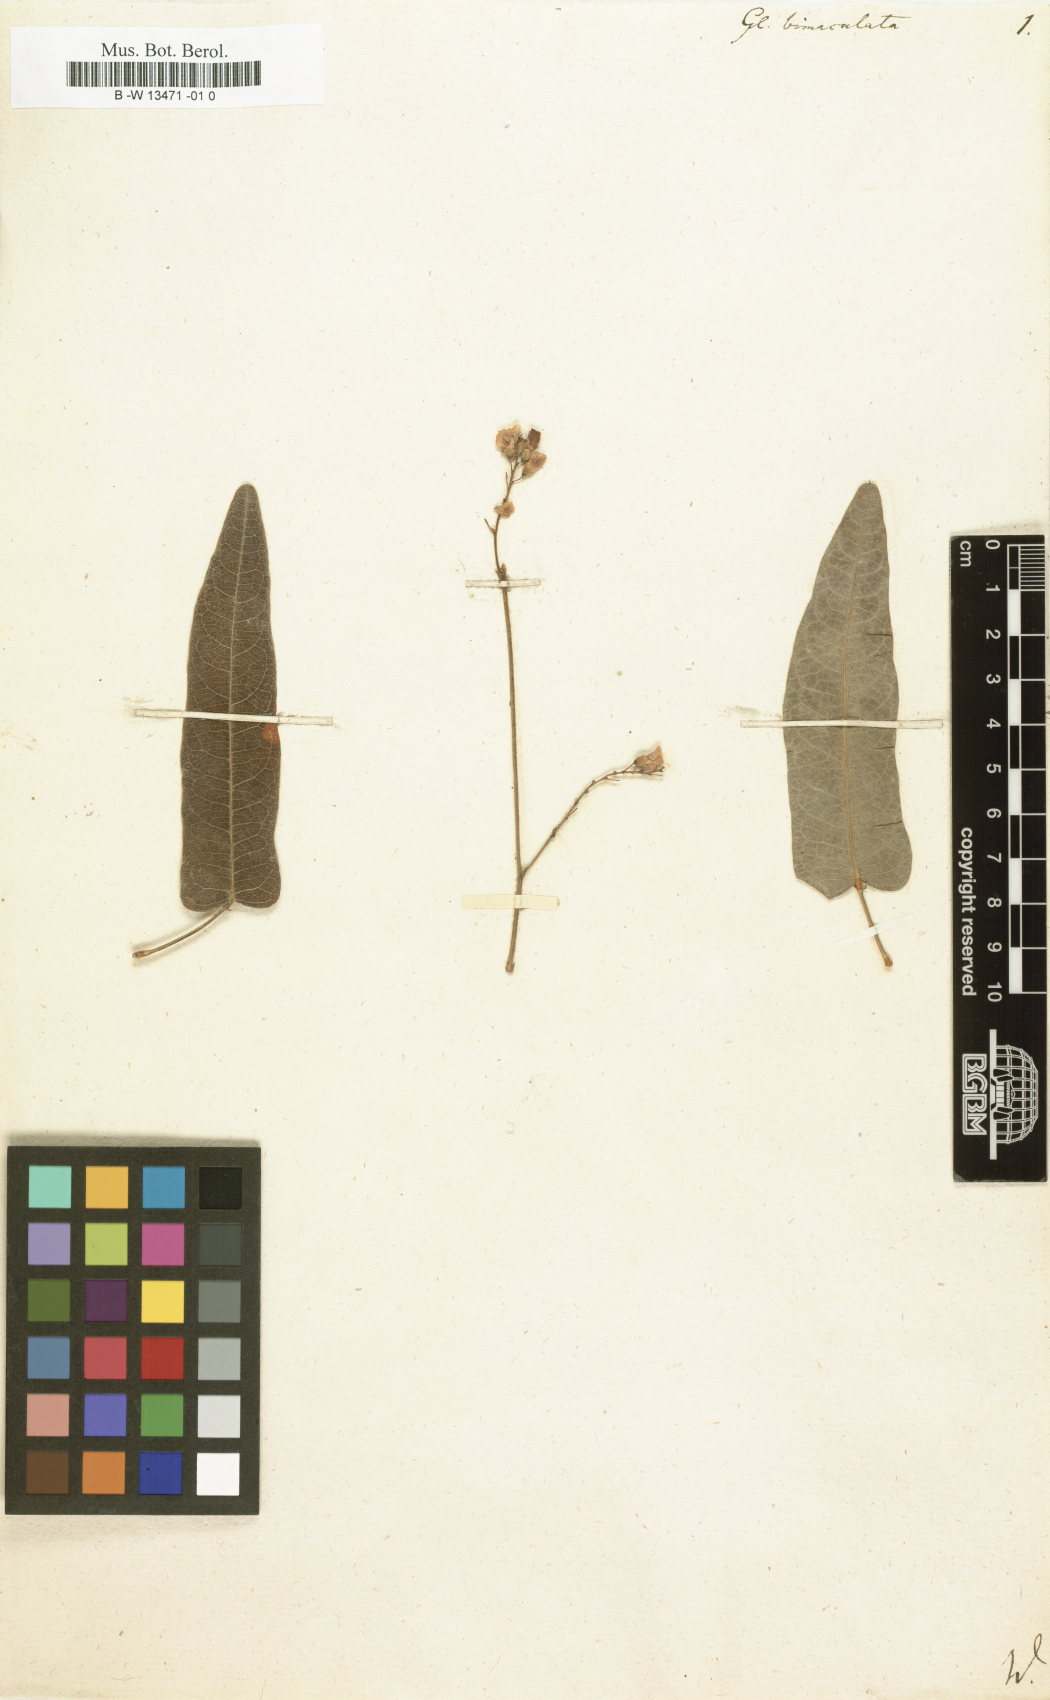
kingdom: Plantae
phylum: Tracheophyta
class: Magnoliopsida
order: Fabales
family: Fabaceae
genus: Hardenbergia
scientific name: Hardenbergia violacea
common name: Coral-pea
